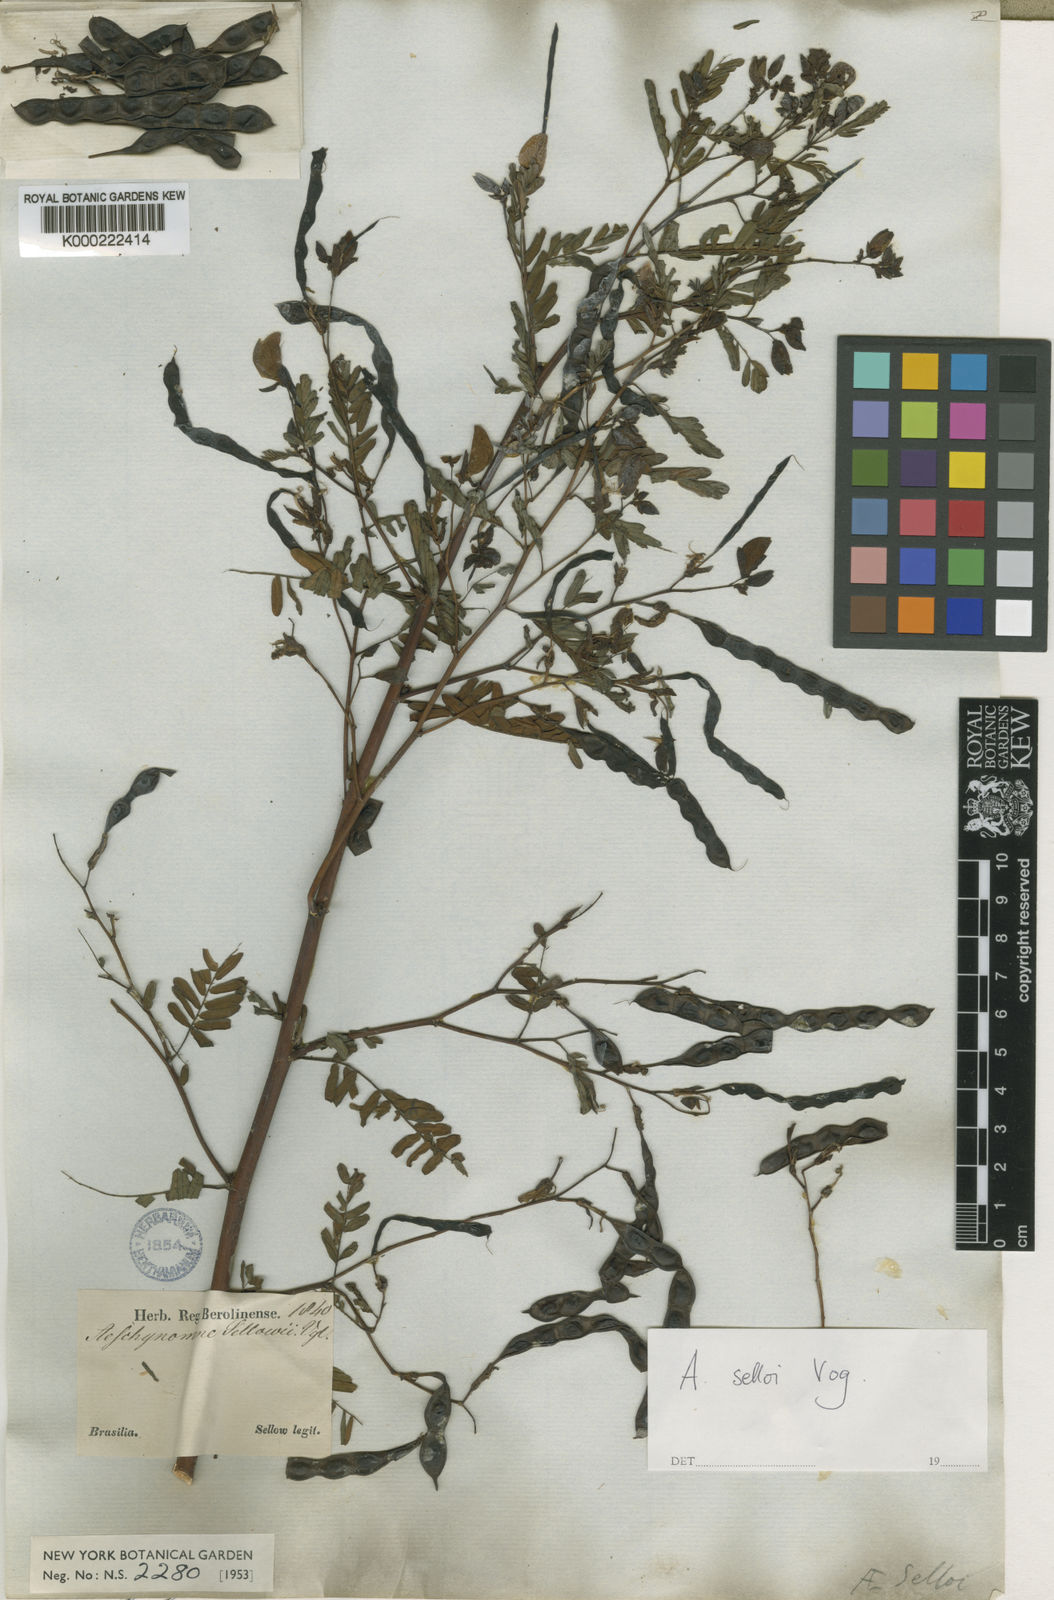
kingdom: Plantae
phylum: Tracheophyta
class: Magnoliopsida
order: Fabales
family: Fabaceae
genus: Aeschynomene
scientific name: Aeschynomene selloi
